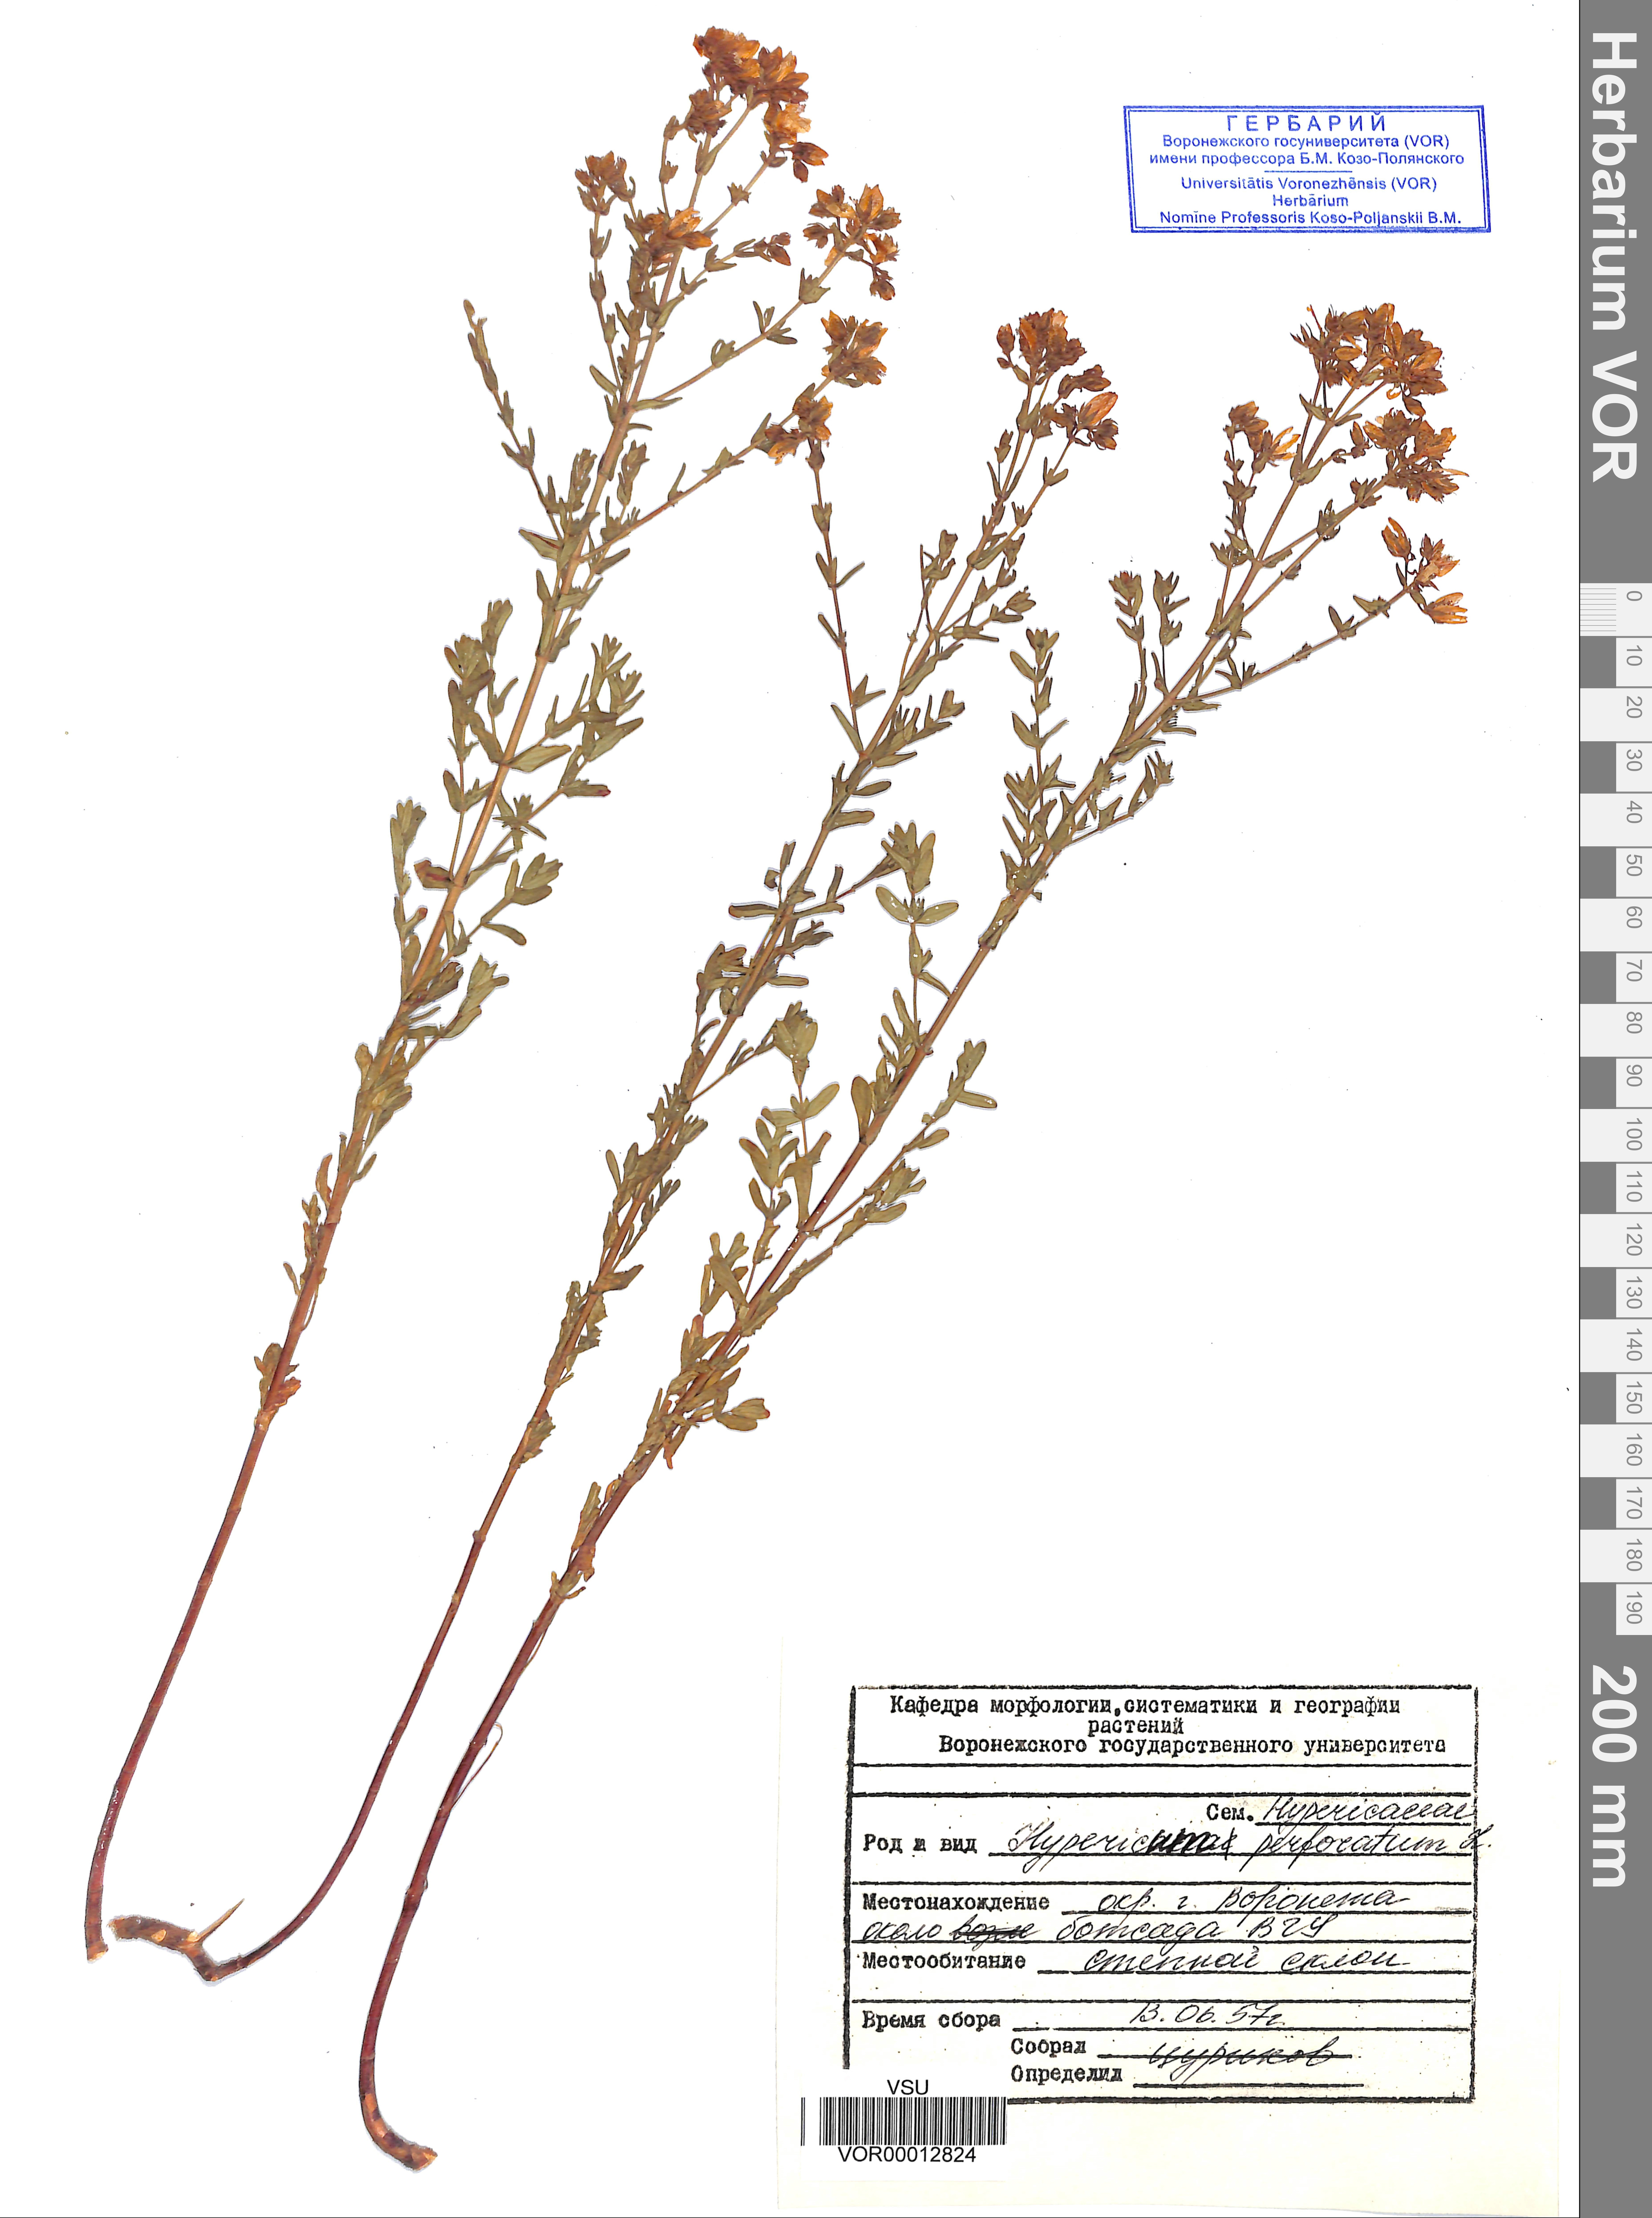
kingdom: Plantae
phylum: Tracheophyta
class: Magnoliopsida
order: Malpighiales
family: Hypericaceae
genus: Hypericum
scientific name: Hypericum perforatum
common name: Common st. johnswort
